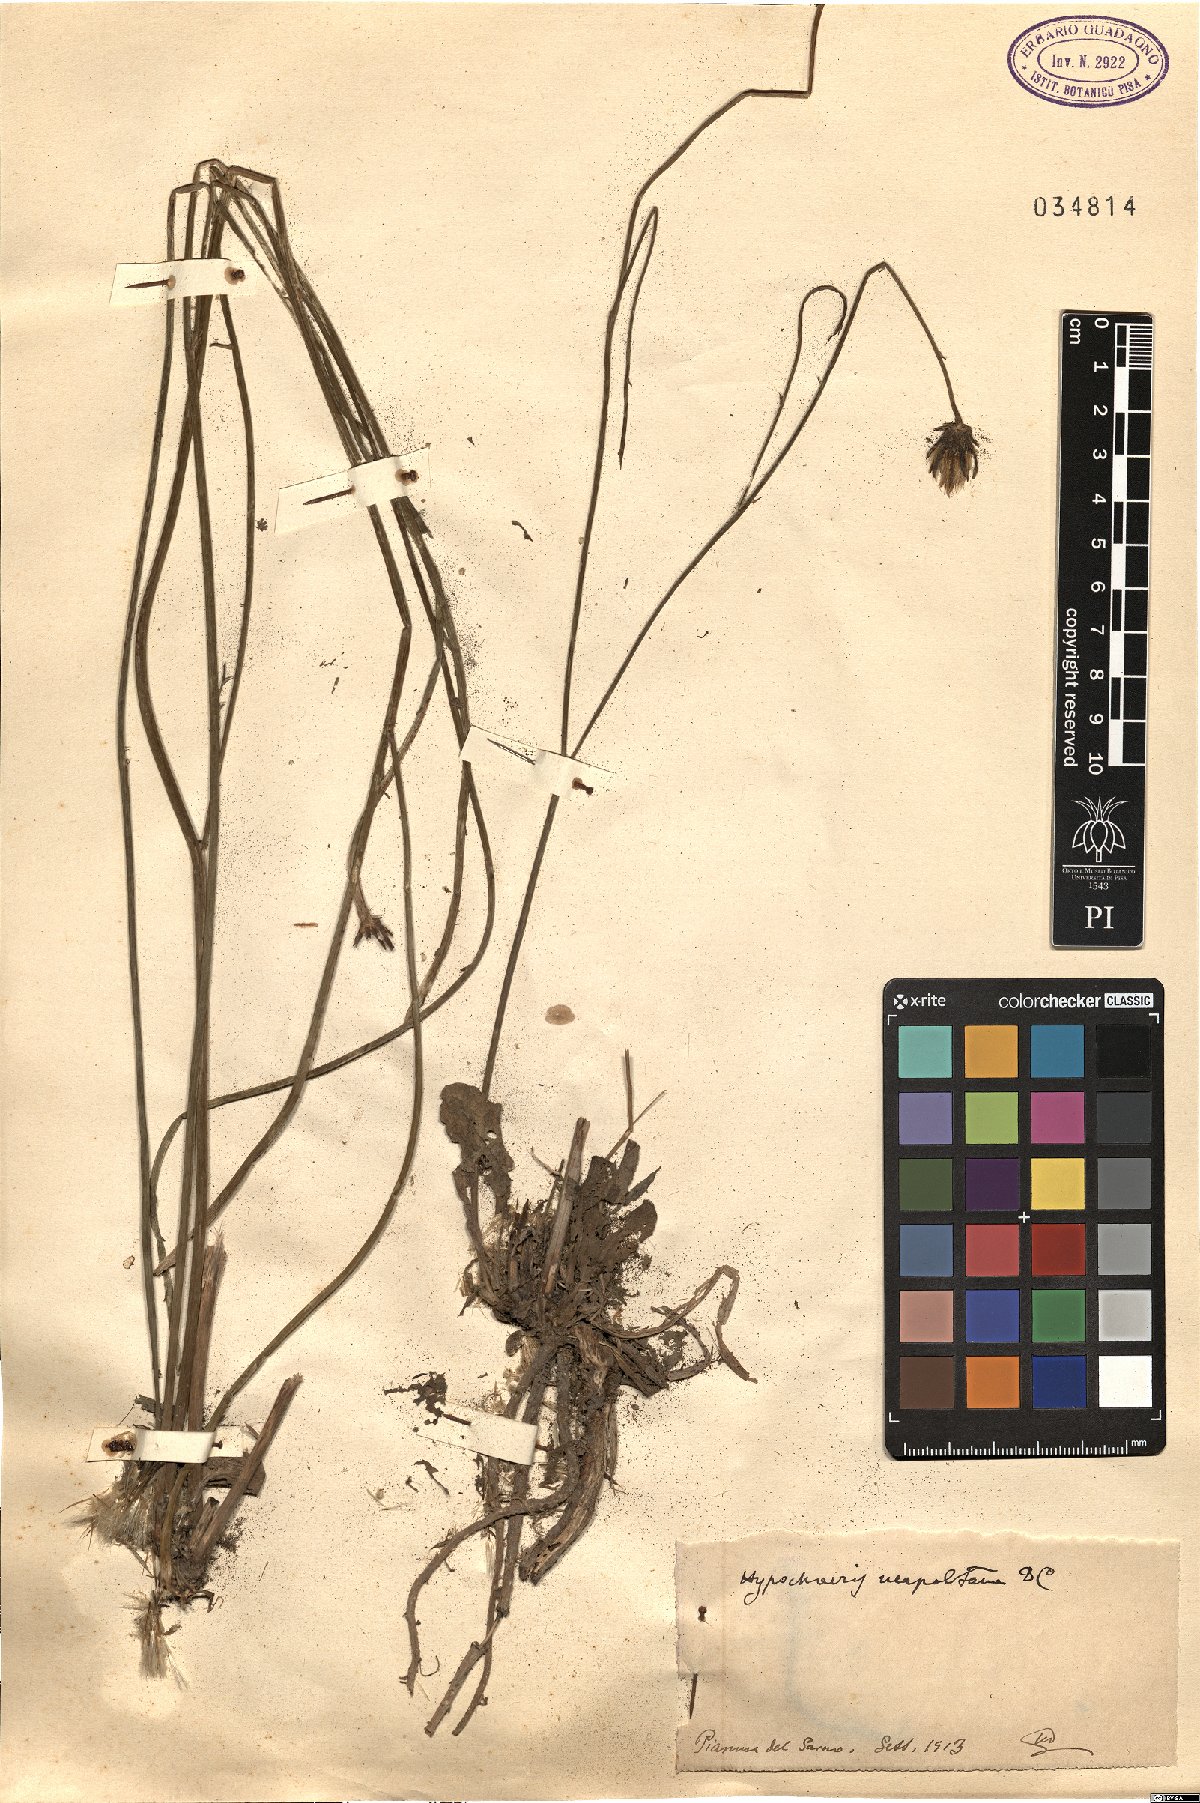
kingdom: Plantae
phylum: Tracheophyta
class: Magnoliopsida
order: Asterales
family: Asteraceae
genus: Hypochaeris
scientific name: Hypochaeris radicata
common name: Flatweed
